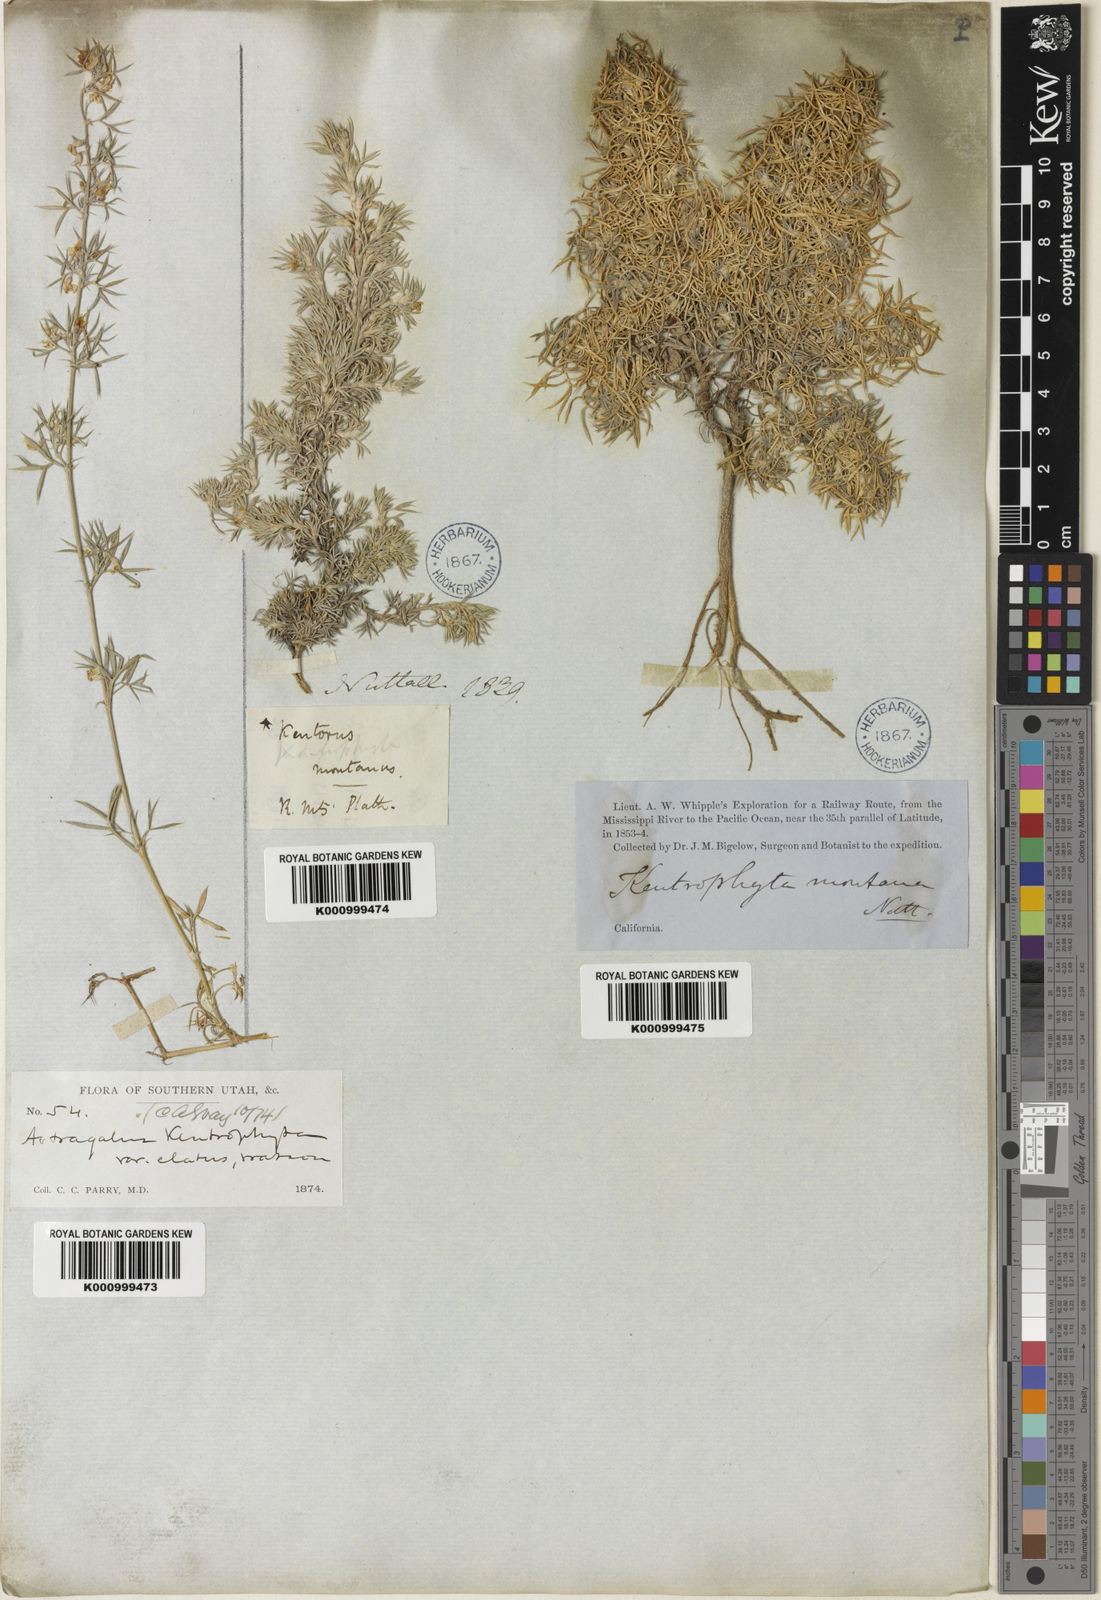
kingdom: Plantae
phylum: Tracheophyta
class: Magnoliopsida
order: Fabales
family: Fabaceae
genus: Astragalus
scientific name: Astragalus kentrophyta
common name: Prickly milk-vetch
